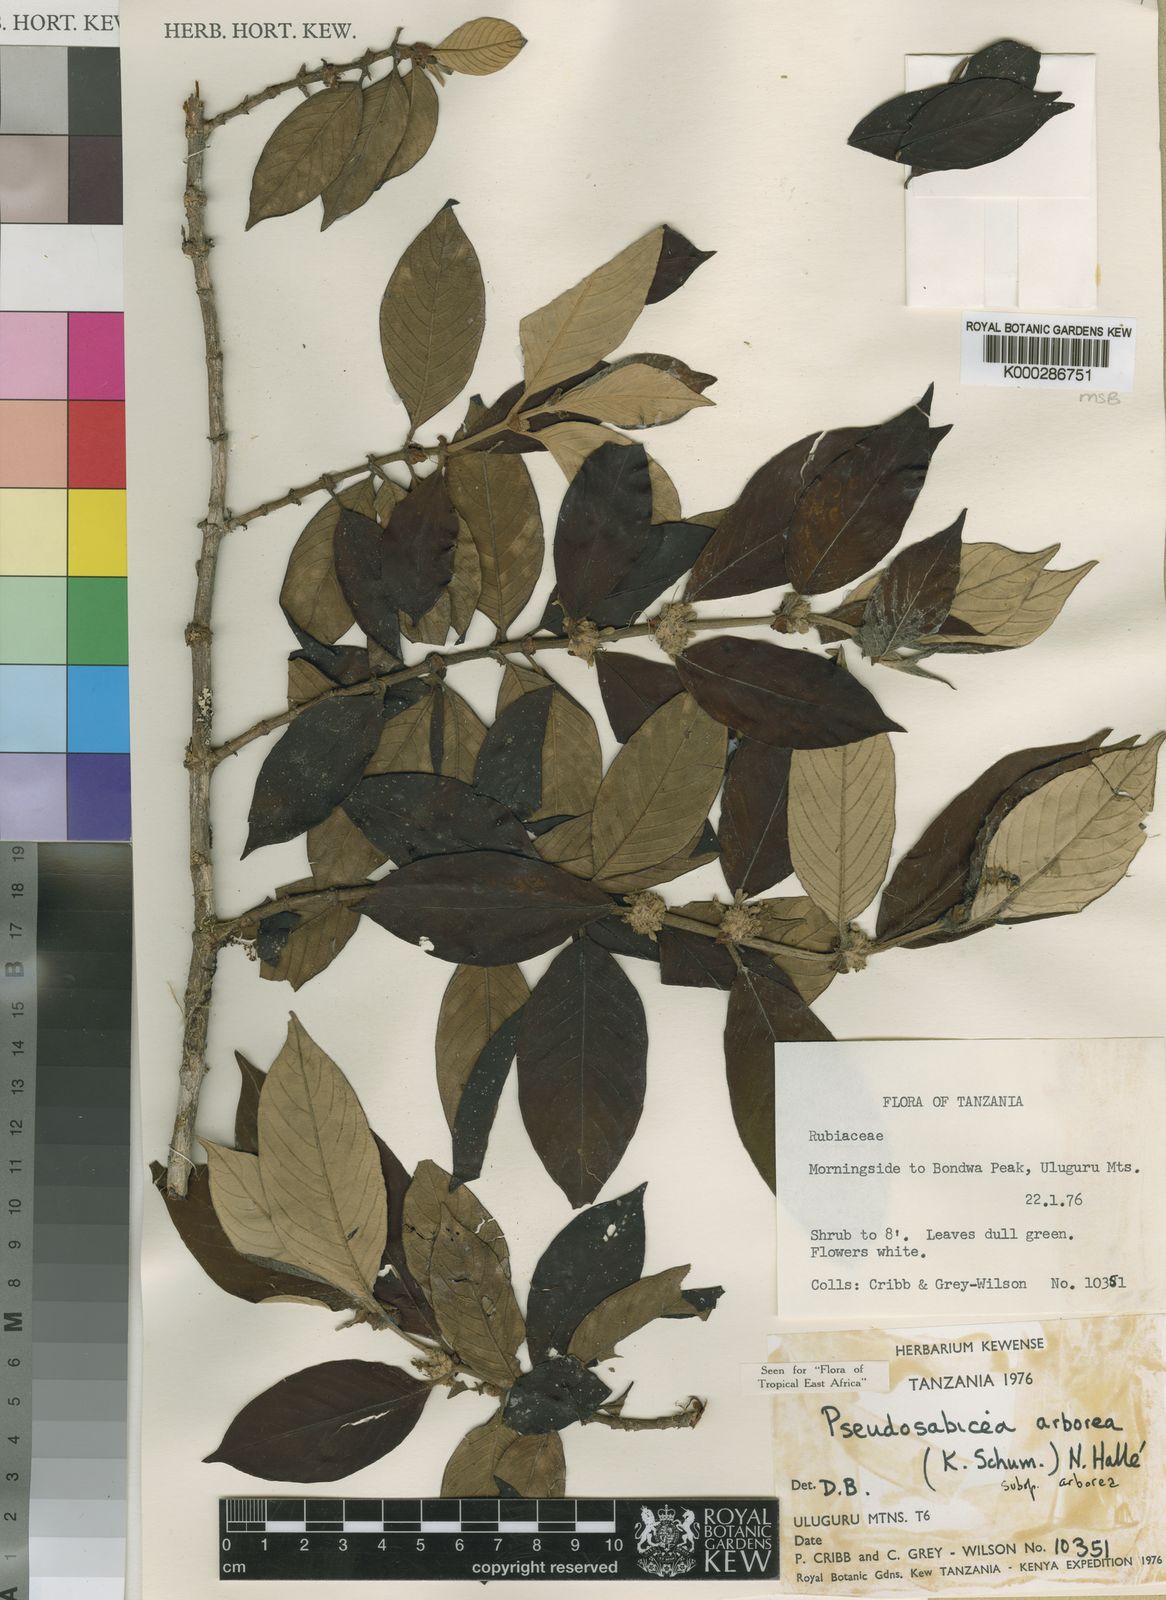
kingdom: Plantae
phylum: Tracheophyta
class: Magnoliopsida
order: Gentianales
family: Rubiaceae
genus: Sabicea
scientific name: Sabicea arborea
